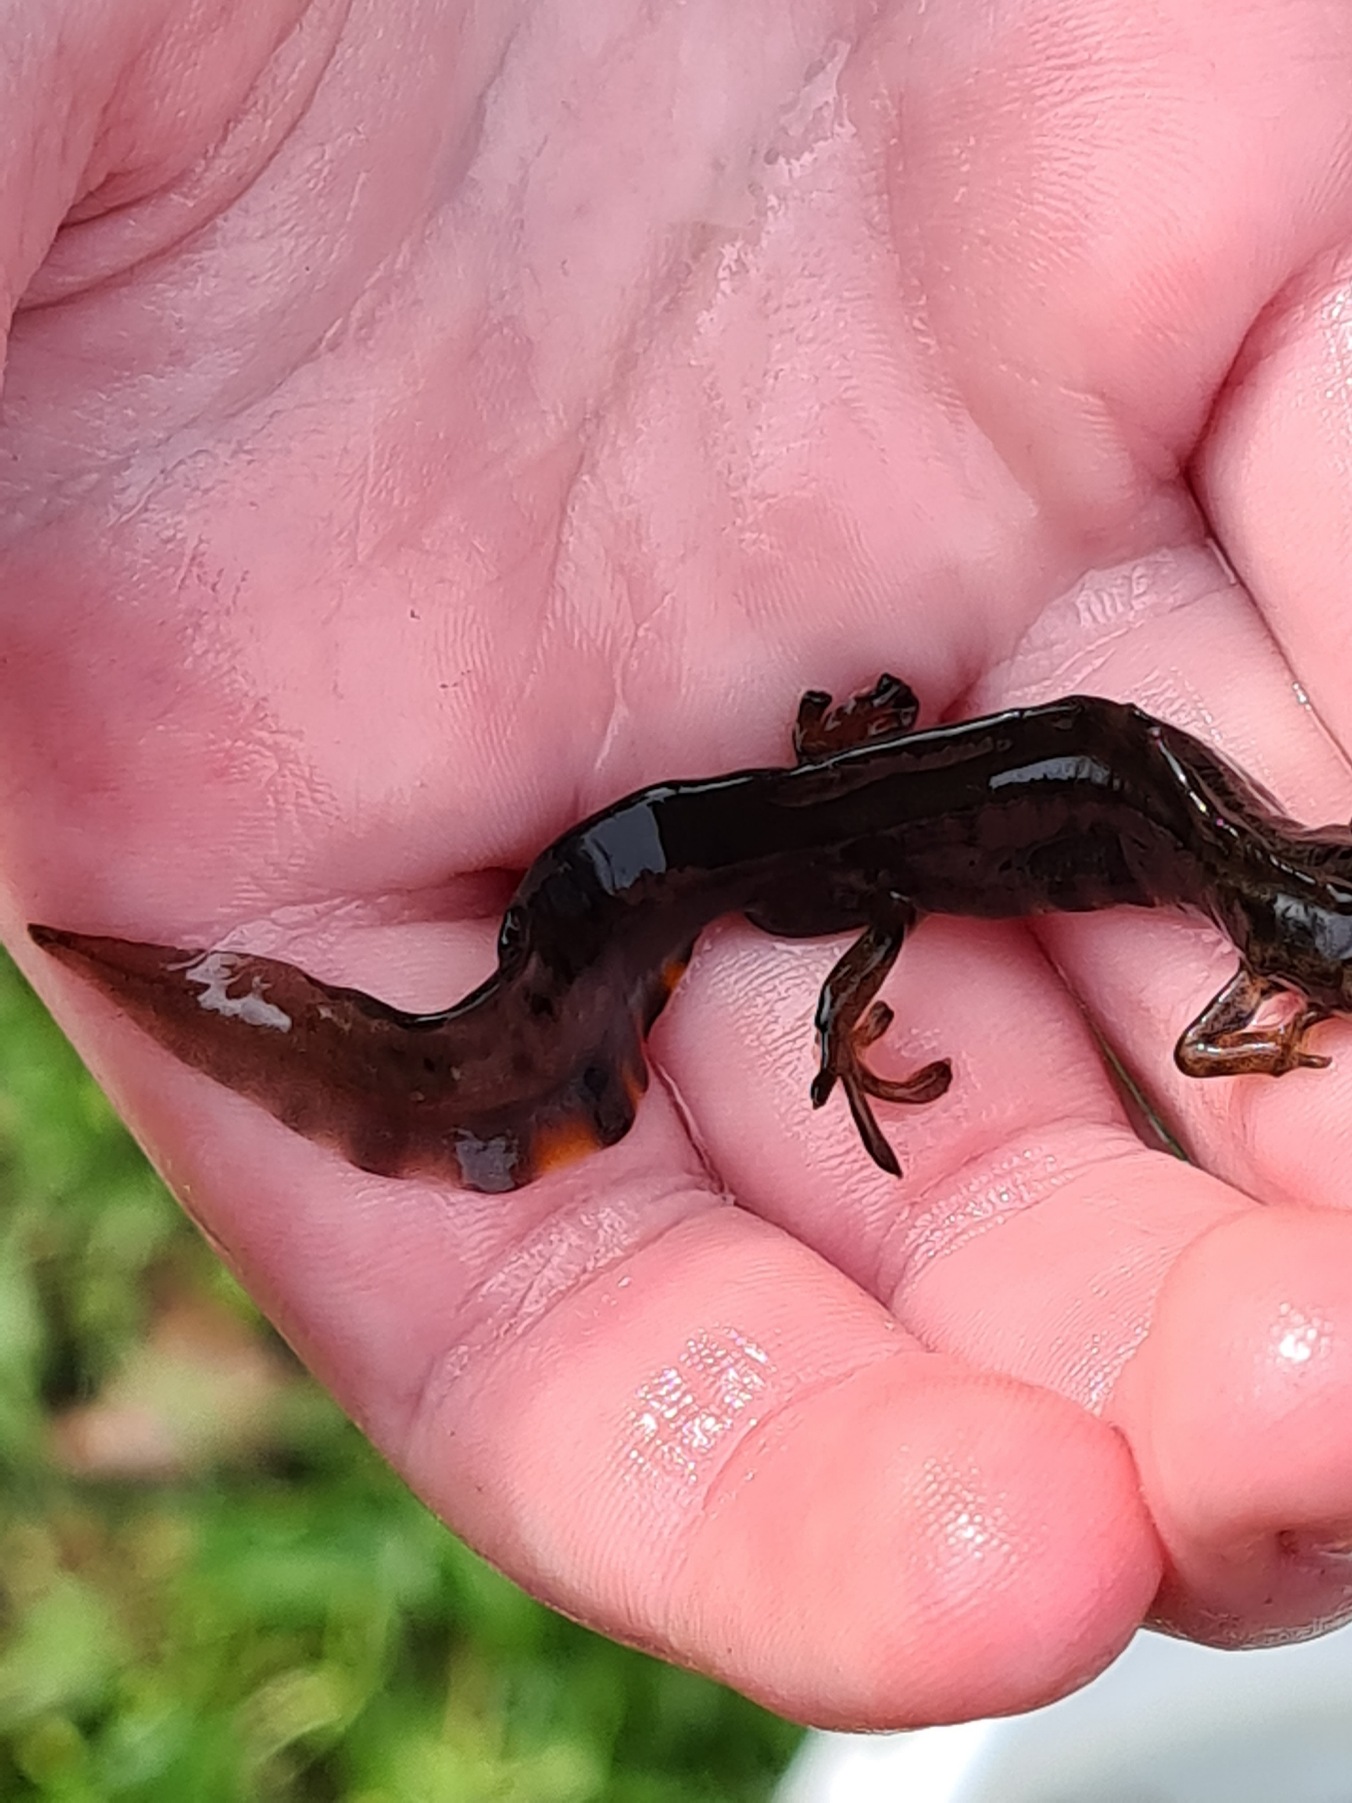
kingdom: Animalia
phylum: Chordata
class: Amphibia
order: Caudata
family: Salamandridae
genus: Lissotriton
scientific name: Lissotriton vulgaris
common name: Lille vandsalamander
